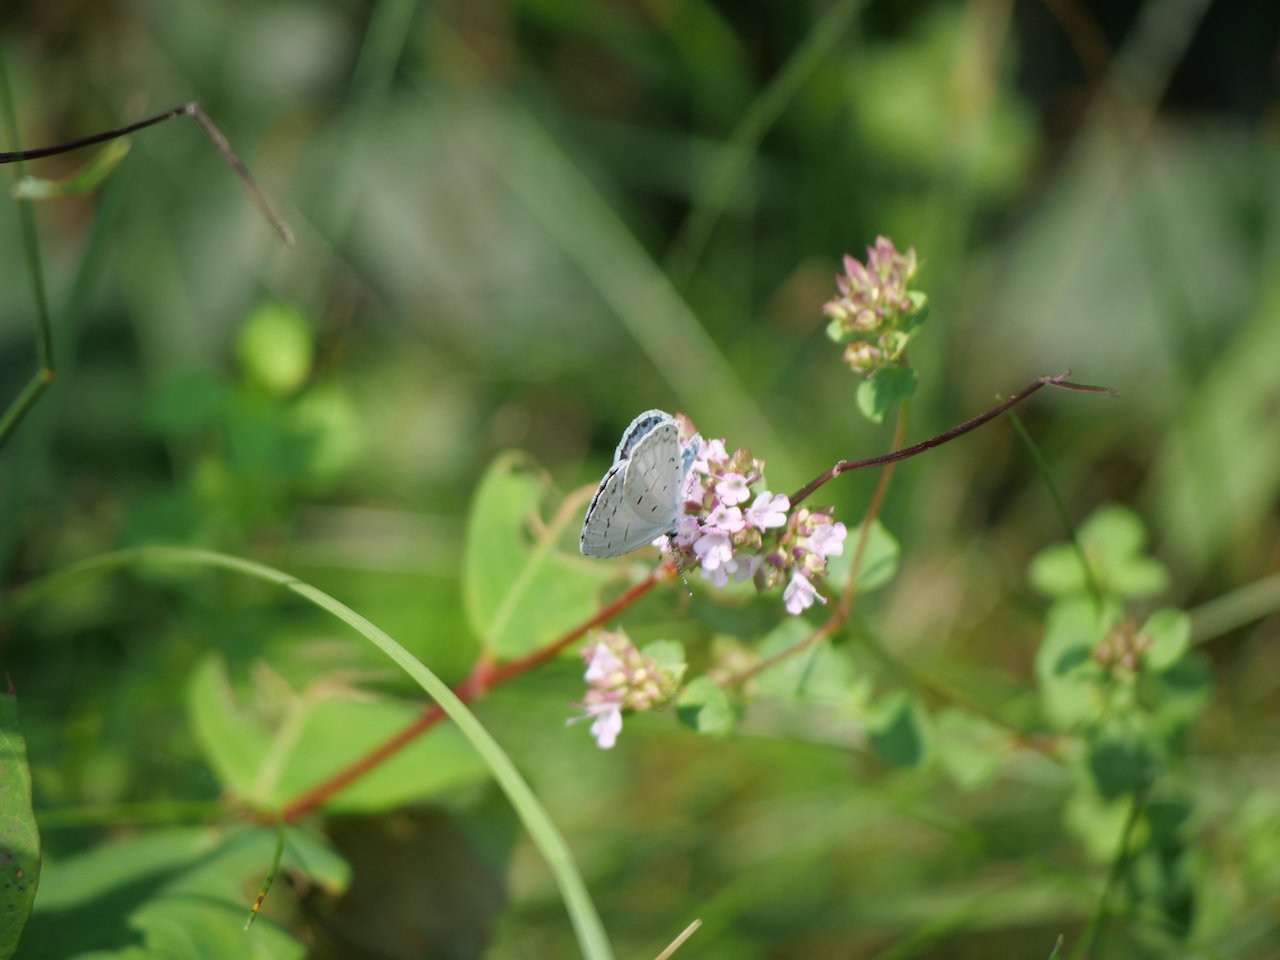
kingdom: Animalia
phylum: Arthropoda
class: Insecta
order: Lepidoptera
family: Lycaenidae
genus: Cyaniris
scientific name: Cyaniris neglecta
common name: Summer Azure
